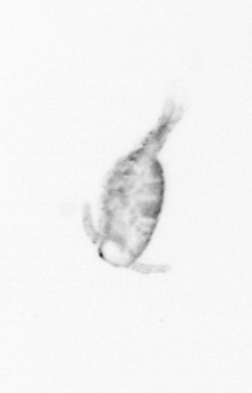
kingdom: Animalia
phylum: Arthropoda
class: Copepoda
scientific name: Copepoda
